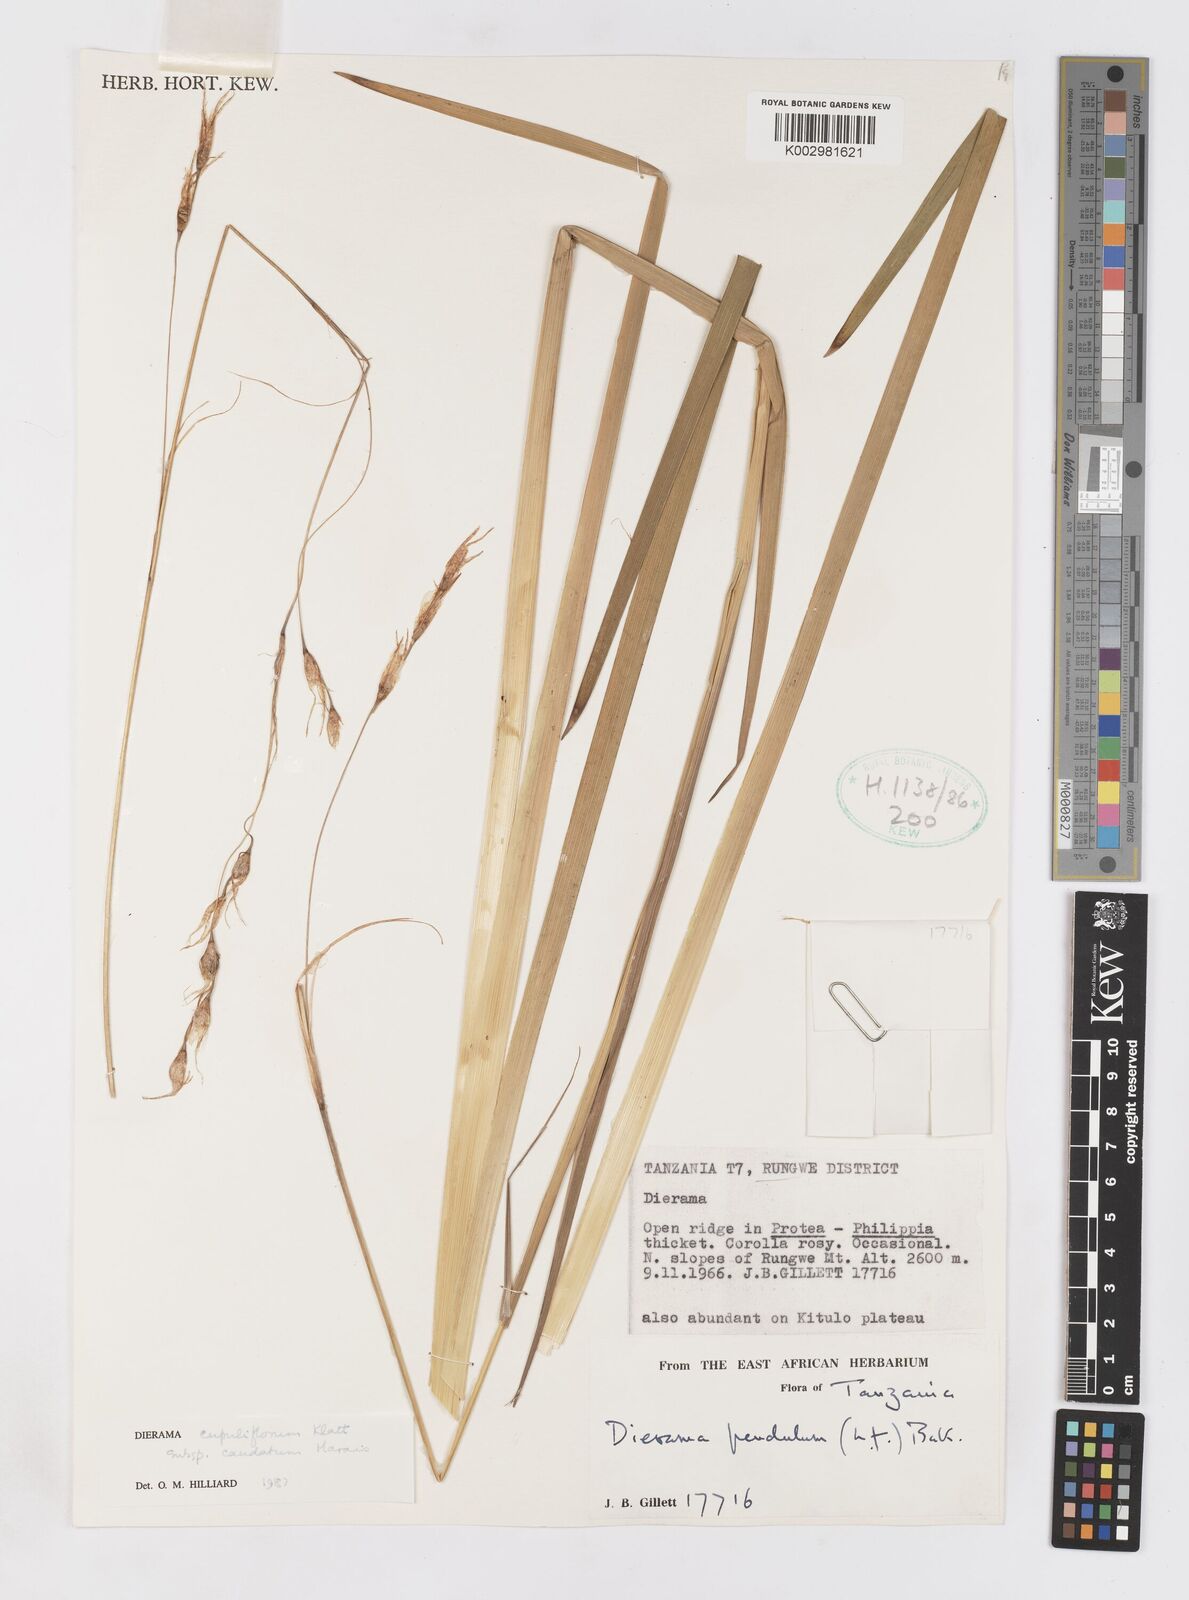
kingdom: Plantae
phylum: Tracheophyta
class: Liliopsida
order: Asparagales
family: Iridaceae
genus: Dierama
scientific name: Dierama cupuliflorum
